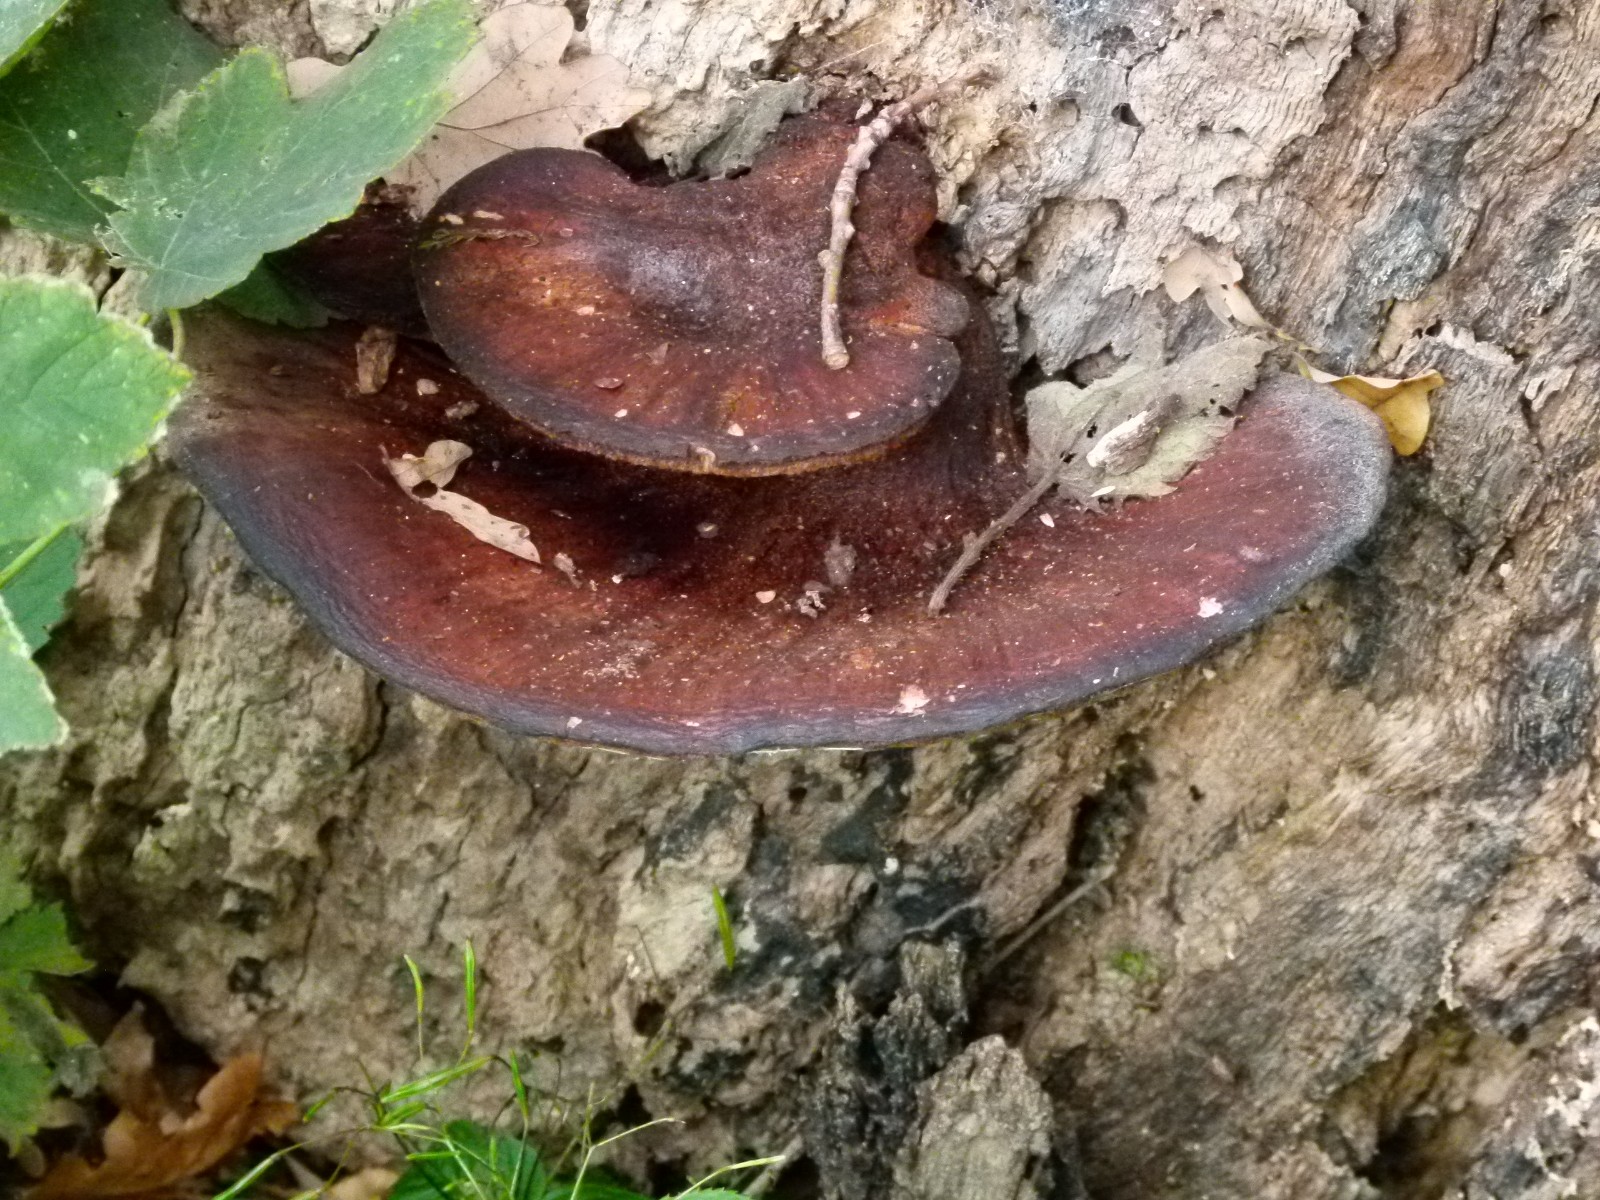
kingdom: Fungi
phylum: Basidiomycota
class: Agaricomycetes
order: Agaricales
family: Fistulinaceae
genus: Fistulina
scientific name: Fistulina hepatica
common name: oksetunge
